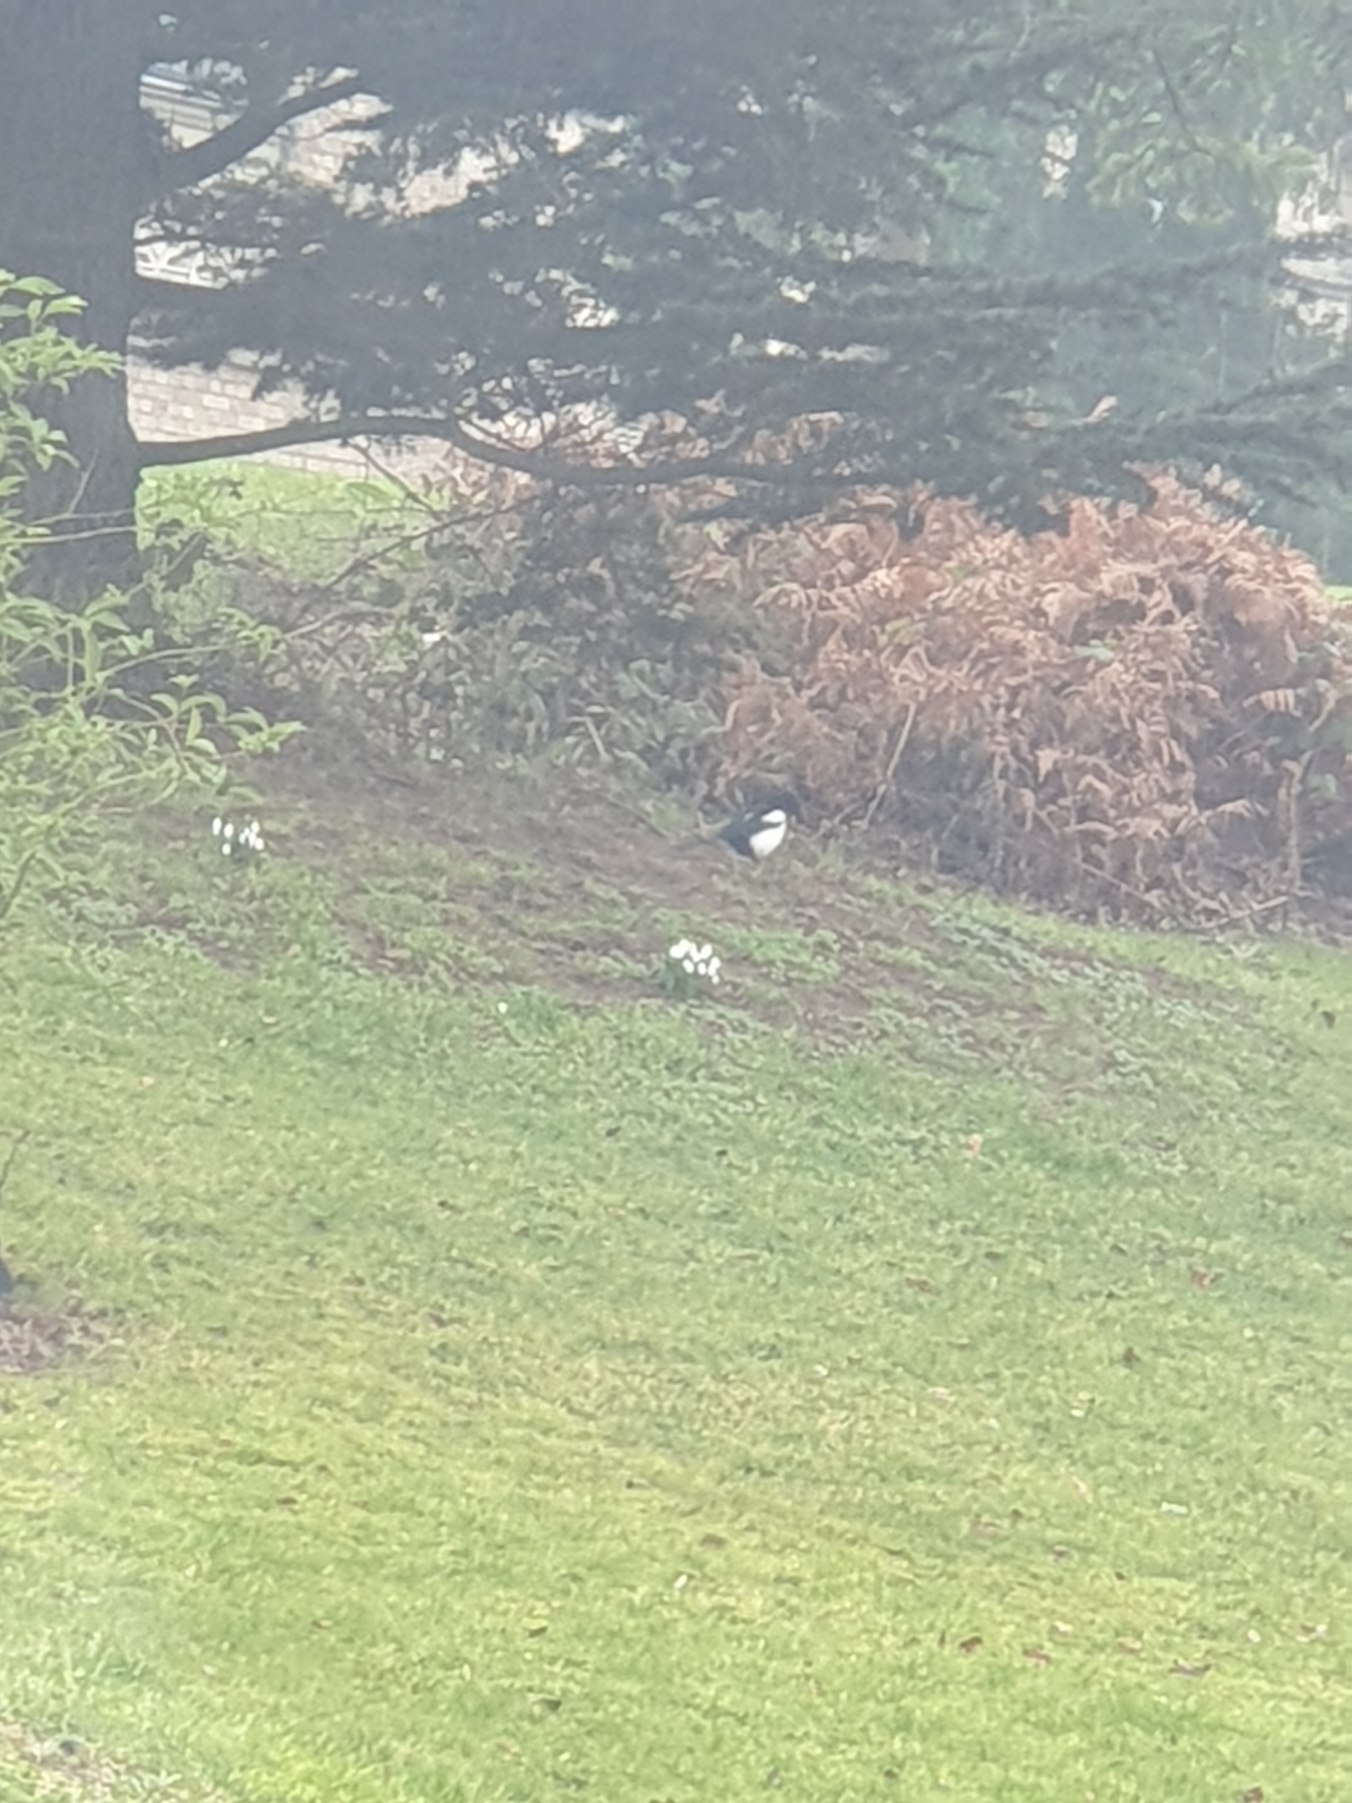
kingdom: Animalia
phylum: Chordata
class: Aves
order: Passeriformes
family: Corvidae
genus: Pica
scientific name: Pica pica
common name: Husskade
